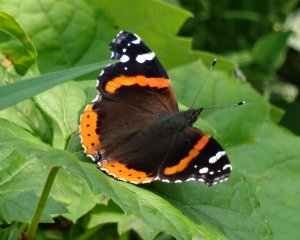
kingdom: Animalia
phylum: Arthropoda
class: Insecta
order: Lepidoptera
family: Nymphalidae
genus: Vanessa
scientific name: Vanessa atalanta
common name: Red Admiral
